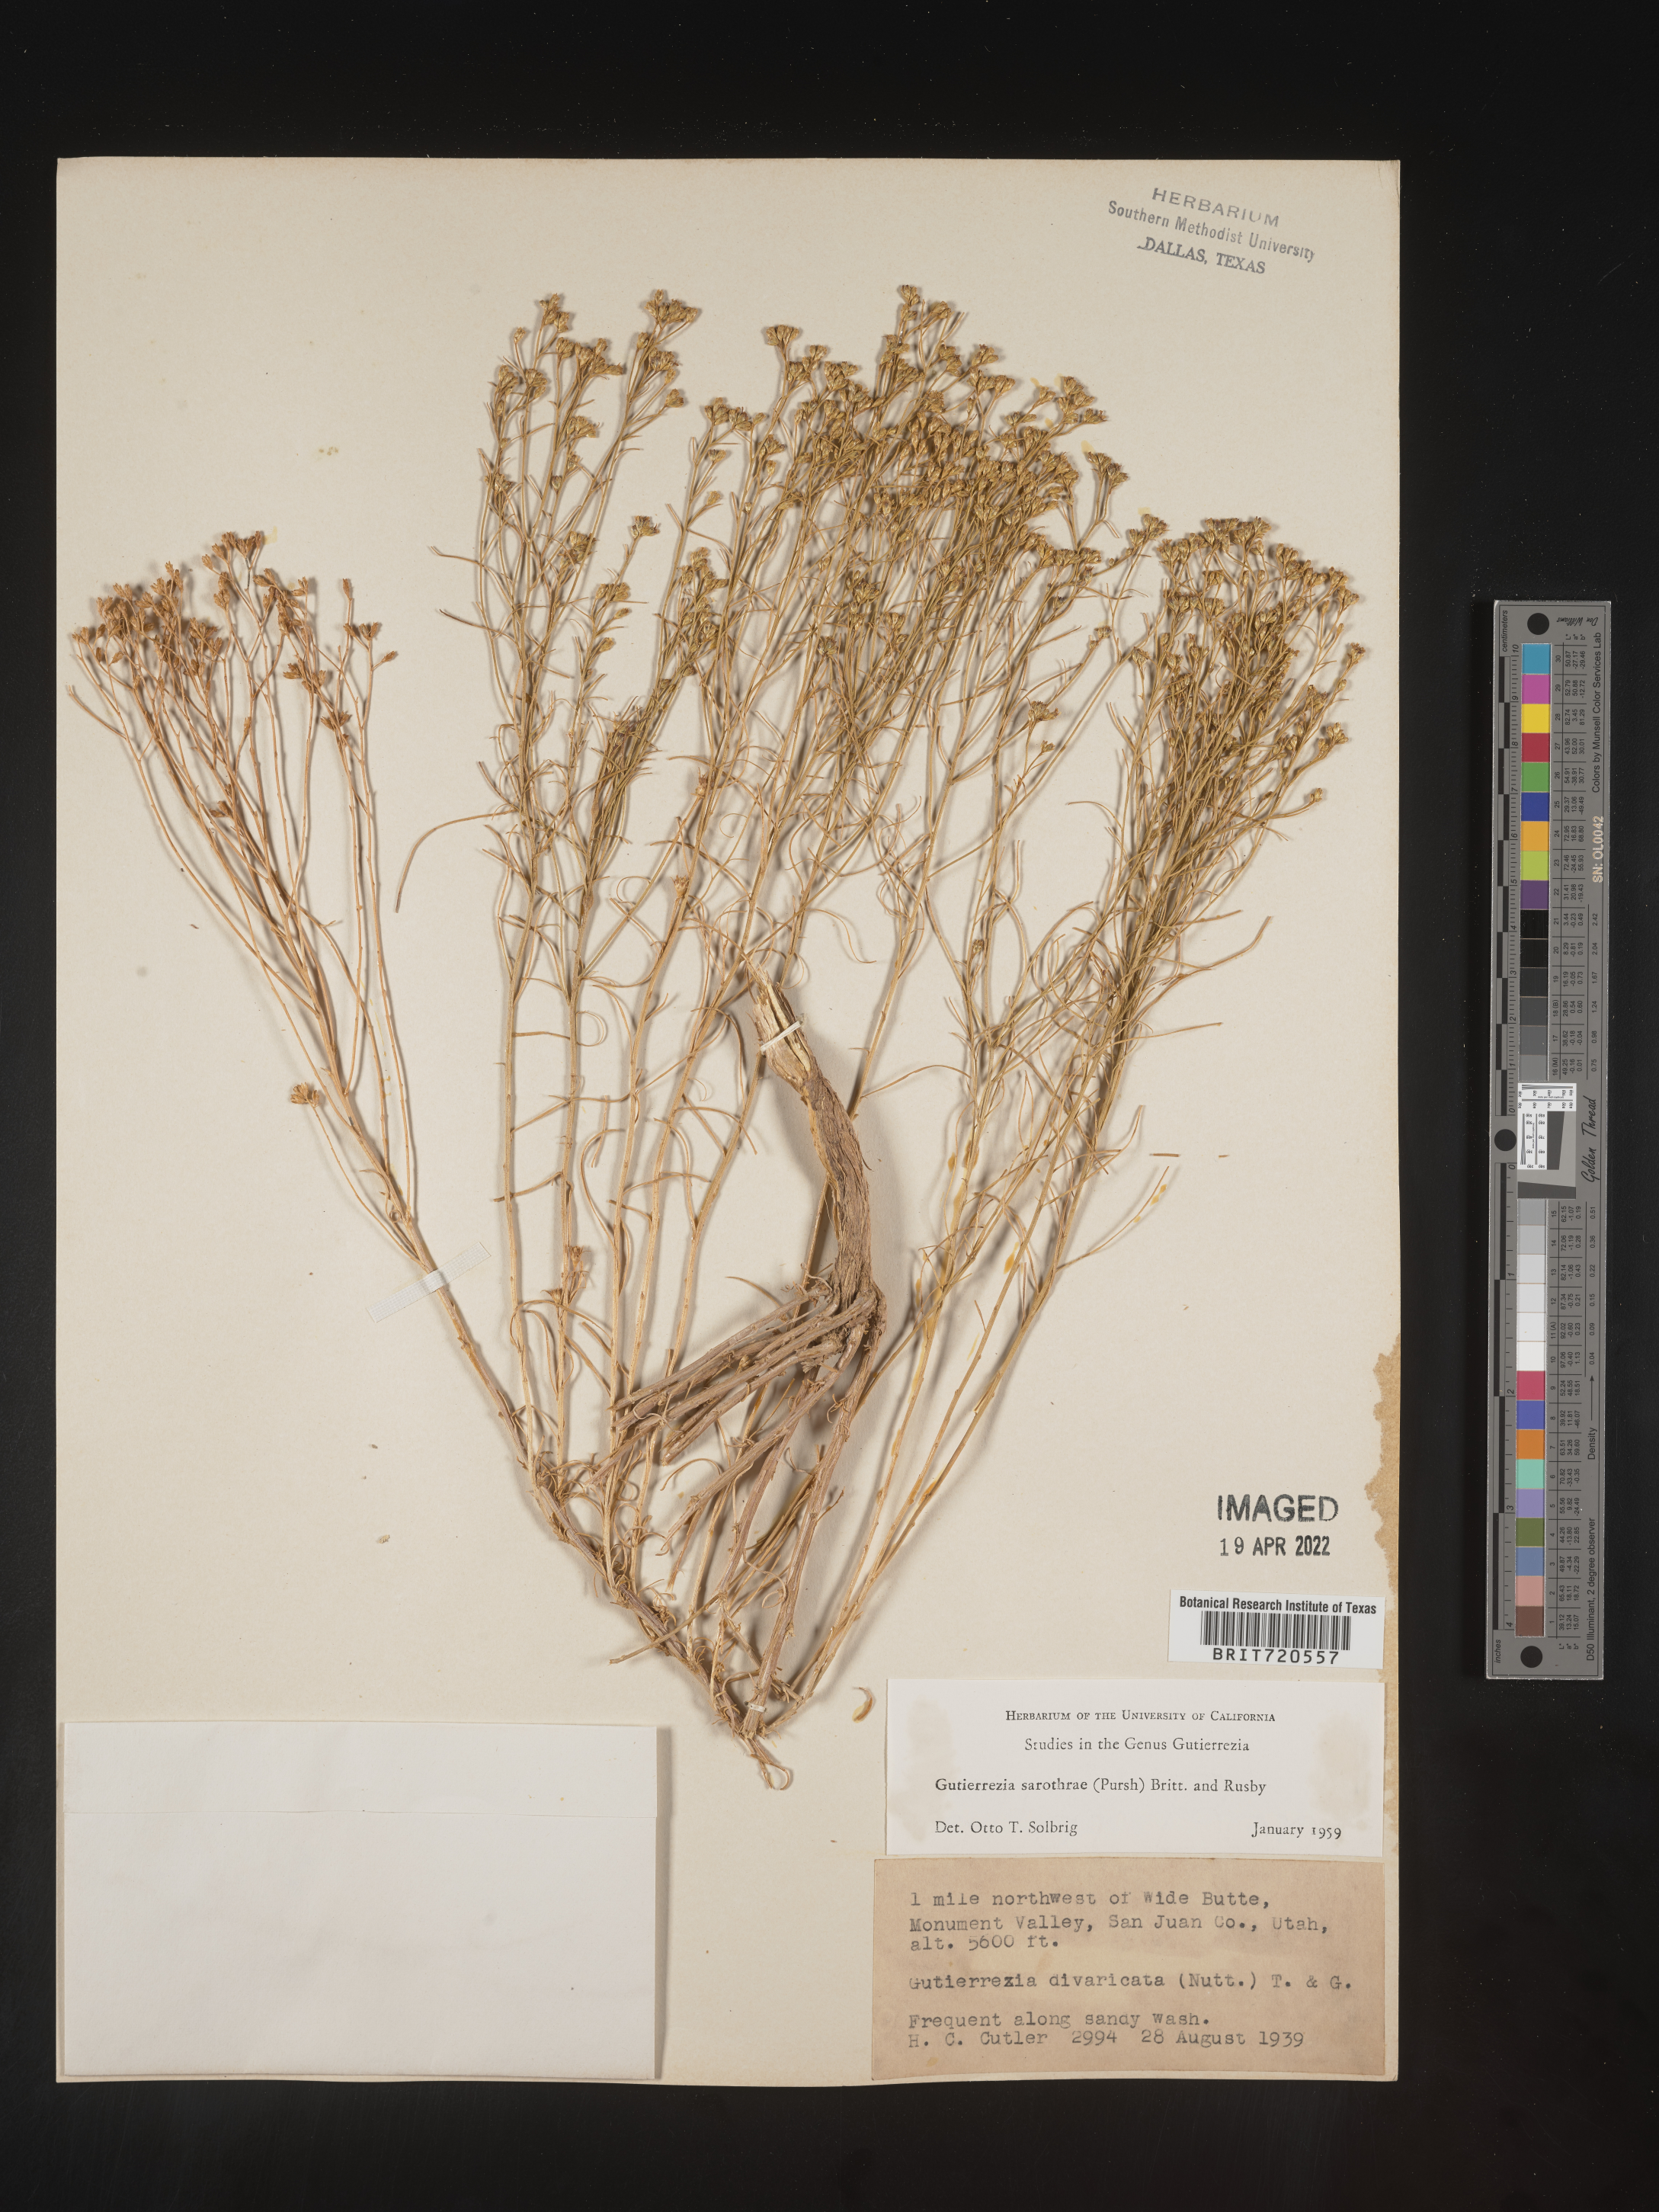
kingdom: Plantae
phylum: Tracheophyta
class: Magnoliopsida
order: Asterales
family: Asteraceae
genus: Gutierrezia
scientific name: Gutierrezia sarothrae
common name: Broom snakeweed
